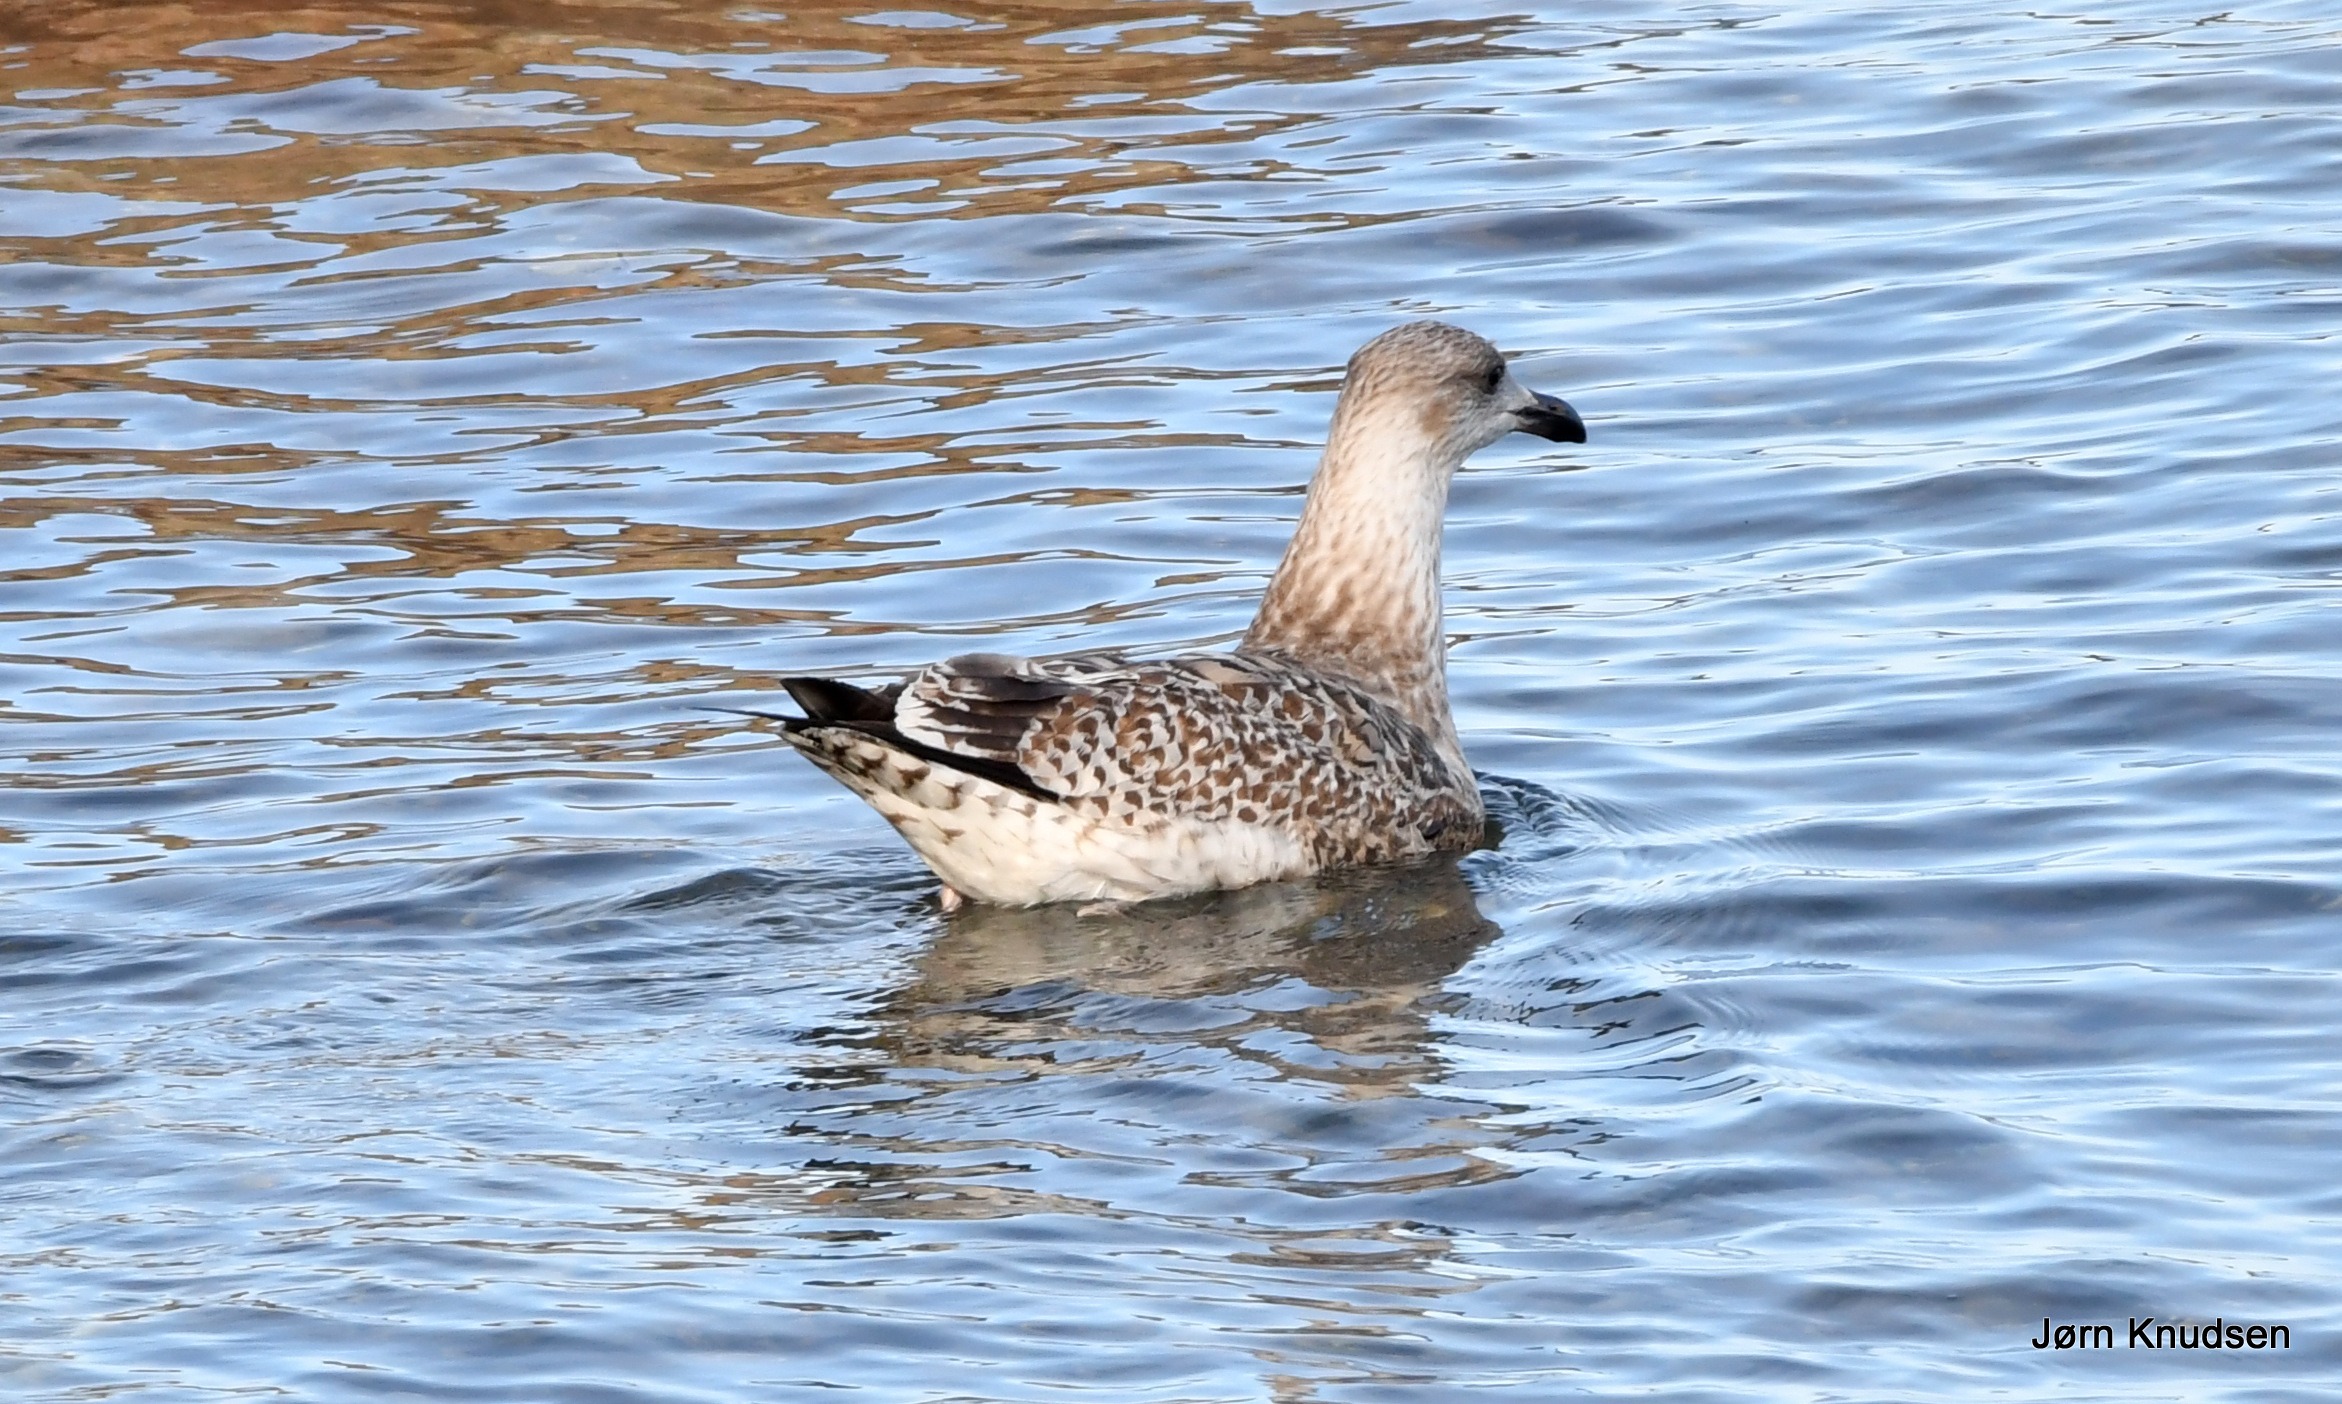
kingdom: Animalia
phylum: Chordata
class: Aves
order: Charadriiformes
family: Laridae
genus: Larus
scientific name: Larus argentatus
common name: Sølvmåge
